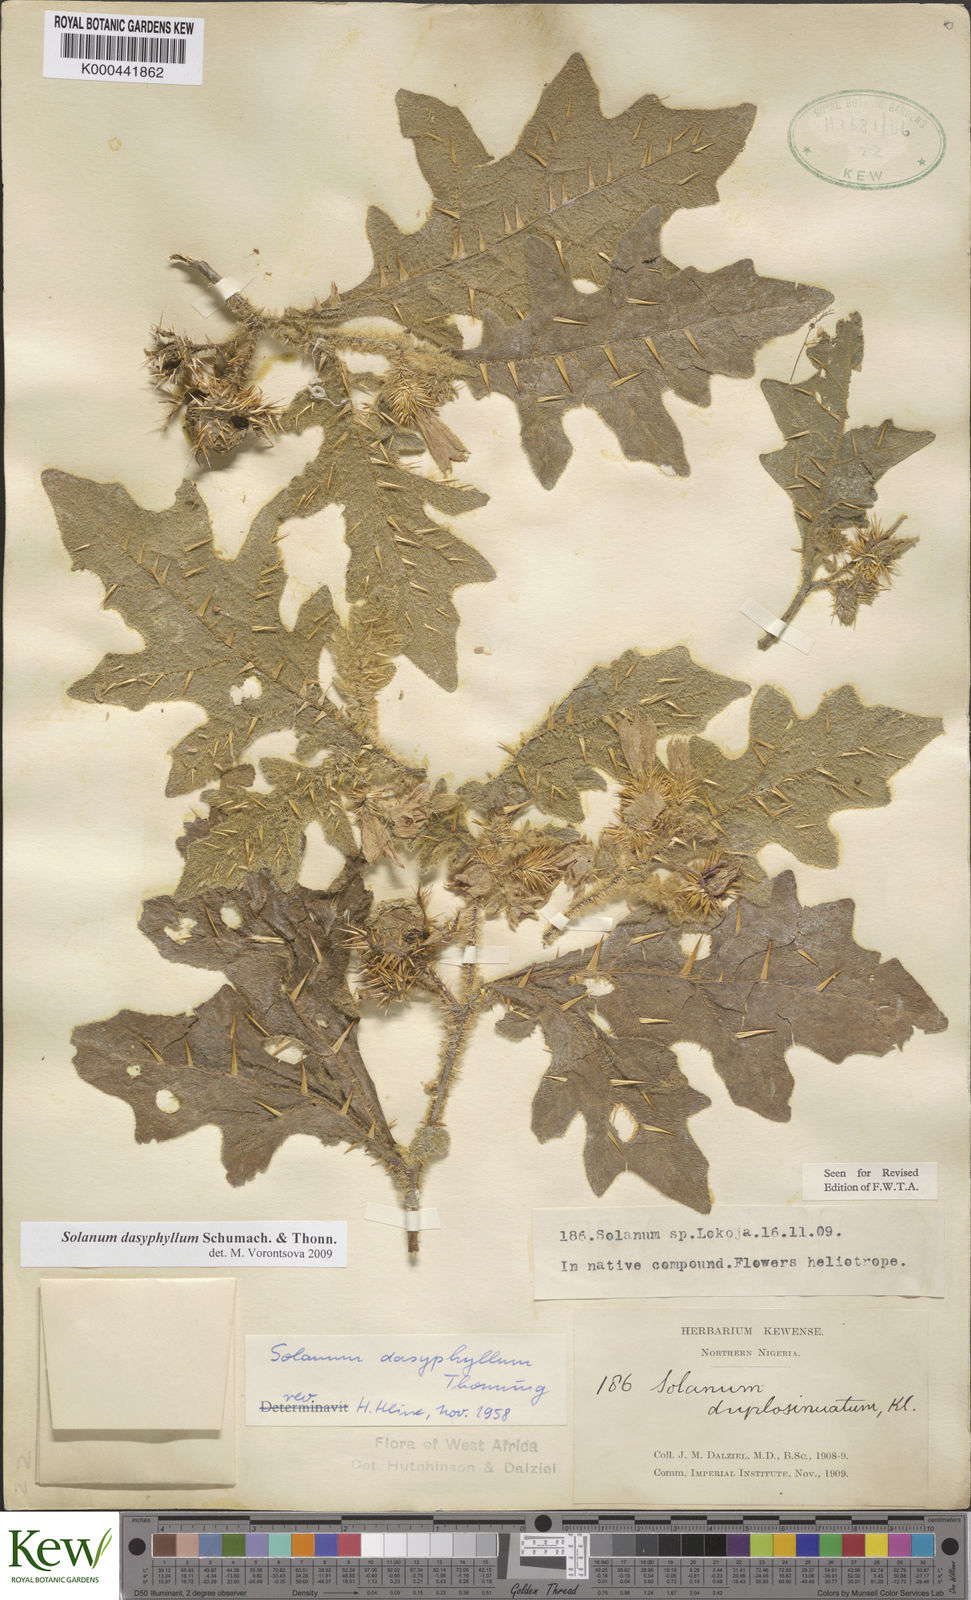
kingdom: Plantae
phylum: Tracheophyta
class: Magnoliopsida
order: Solanales
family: Solanaceae
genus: Solanum
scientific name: Solanum dasyphyllum
